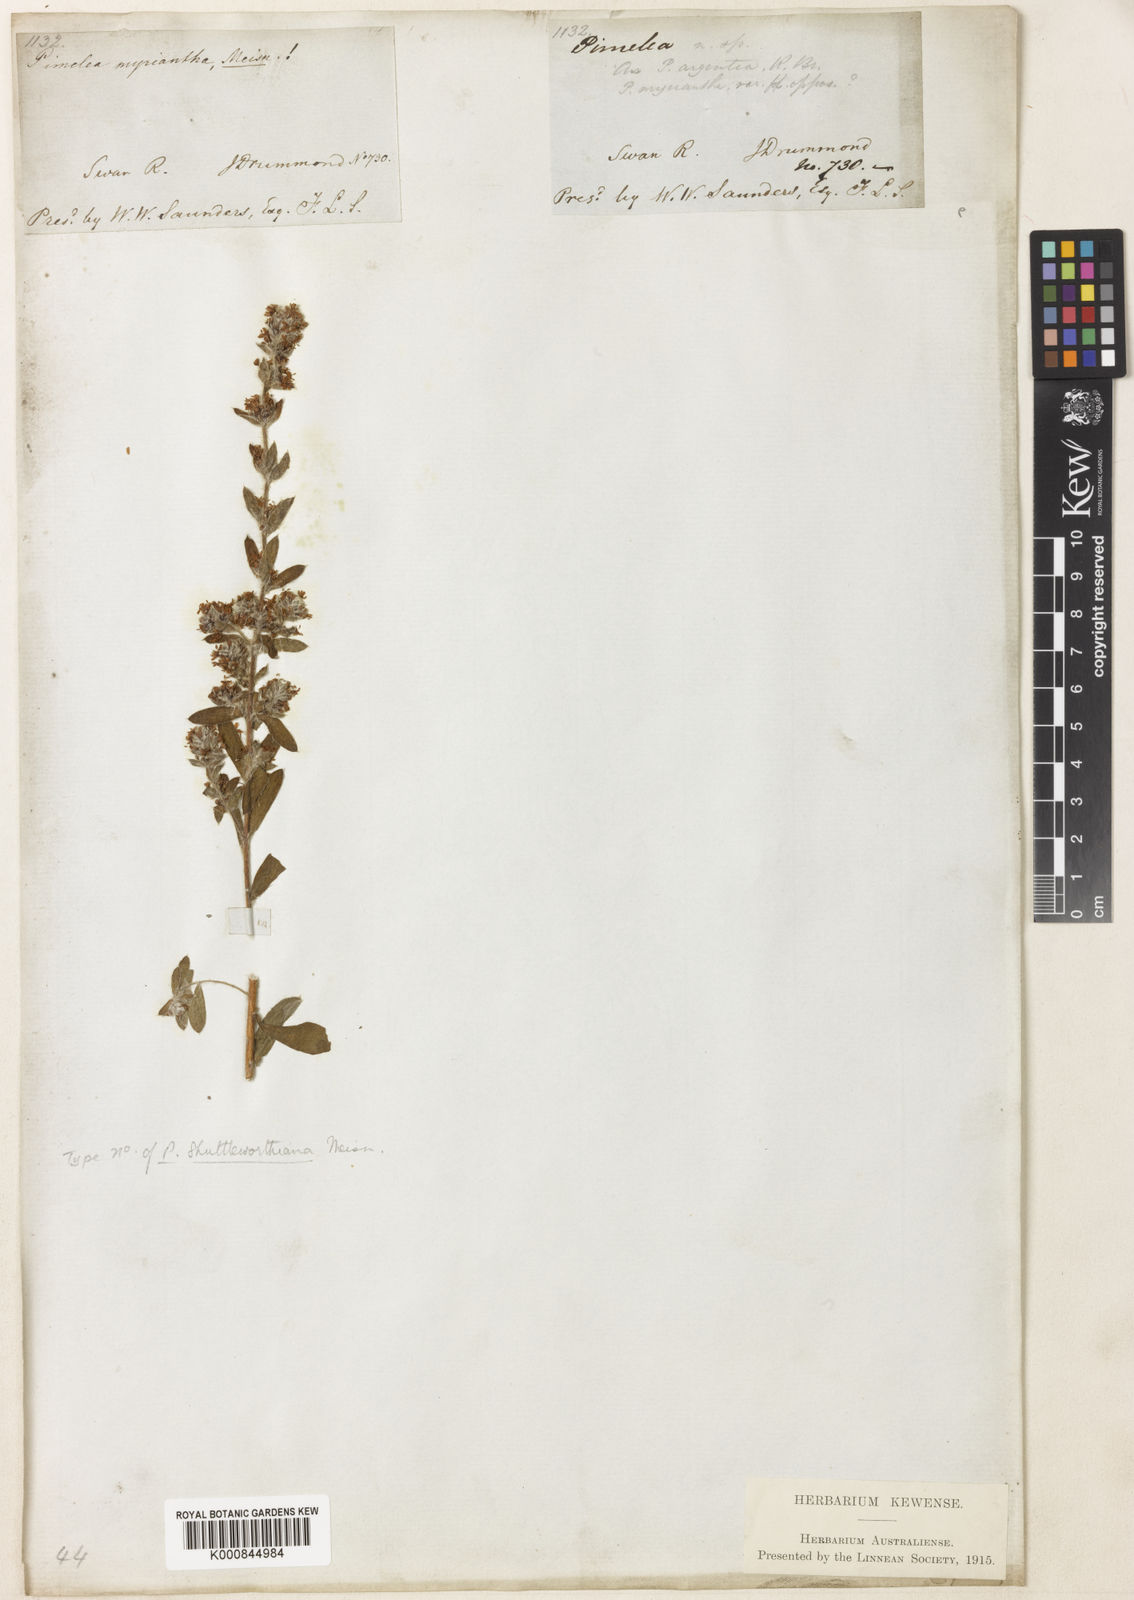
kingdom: Plantae
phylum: Tracheophyta
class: Magnoliopsida
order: Malvales
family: Thymelaeaceae
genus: Pimelea
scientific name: Pimelea argentea
